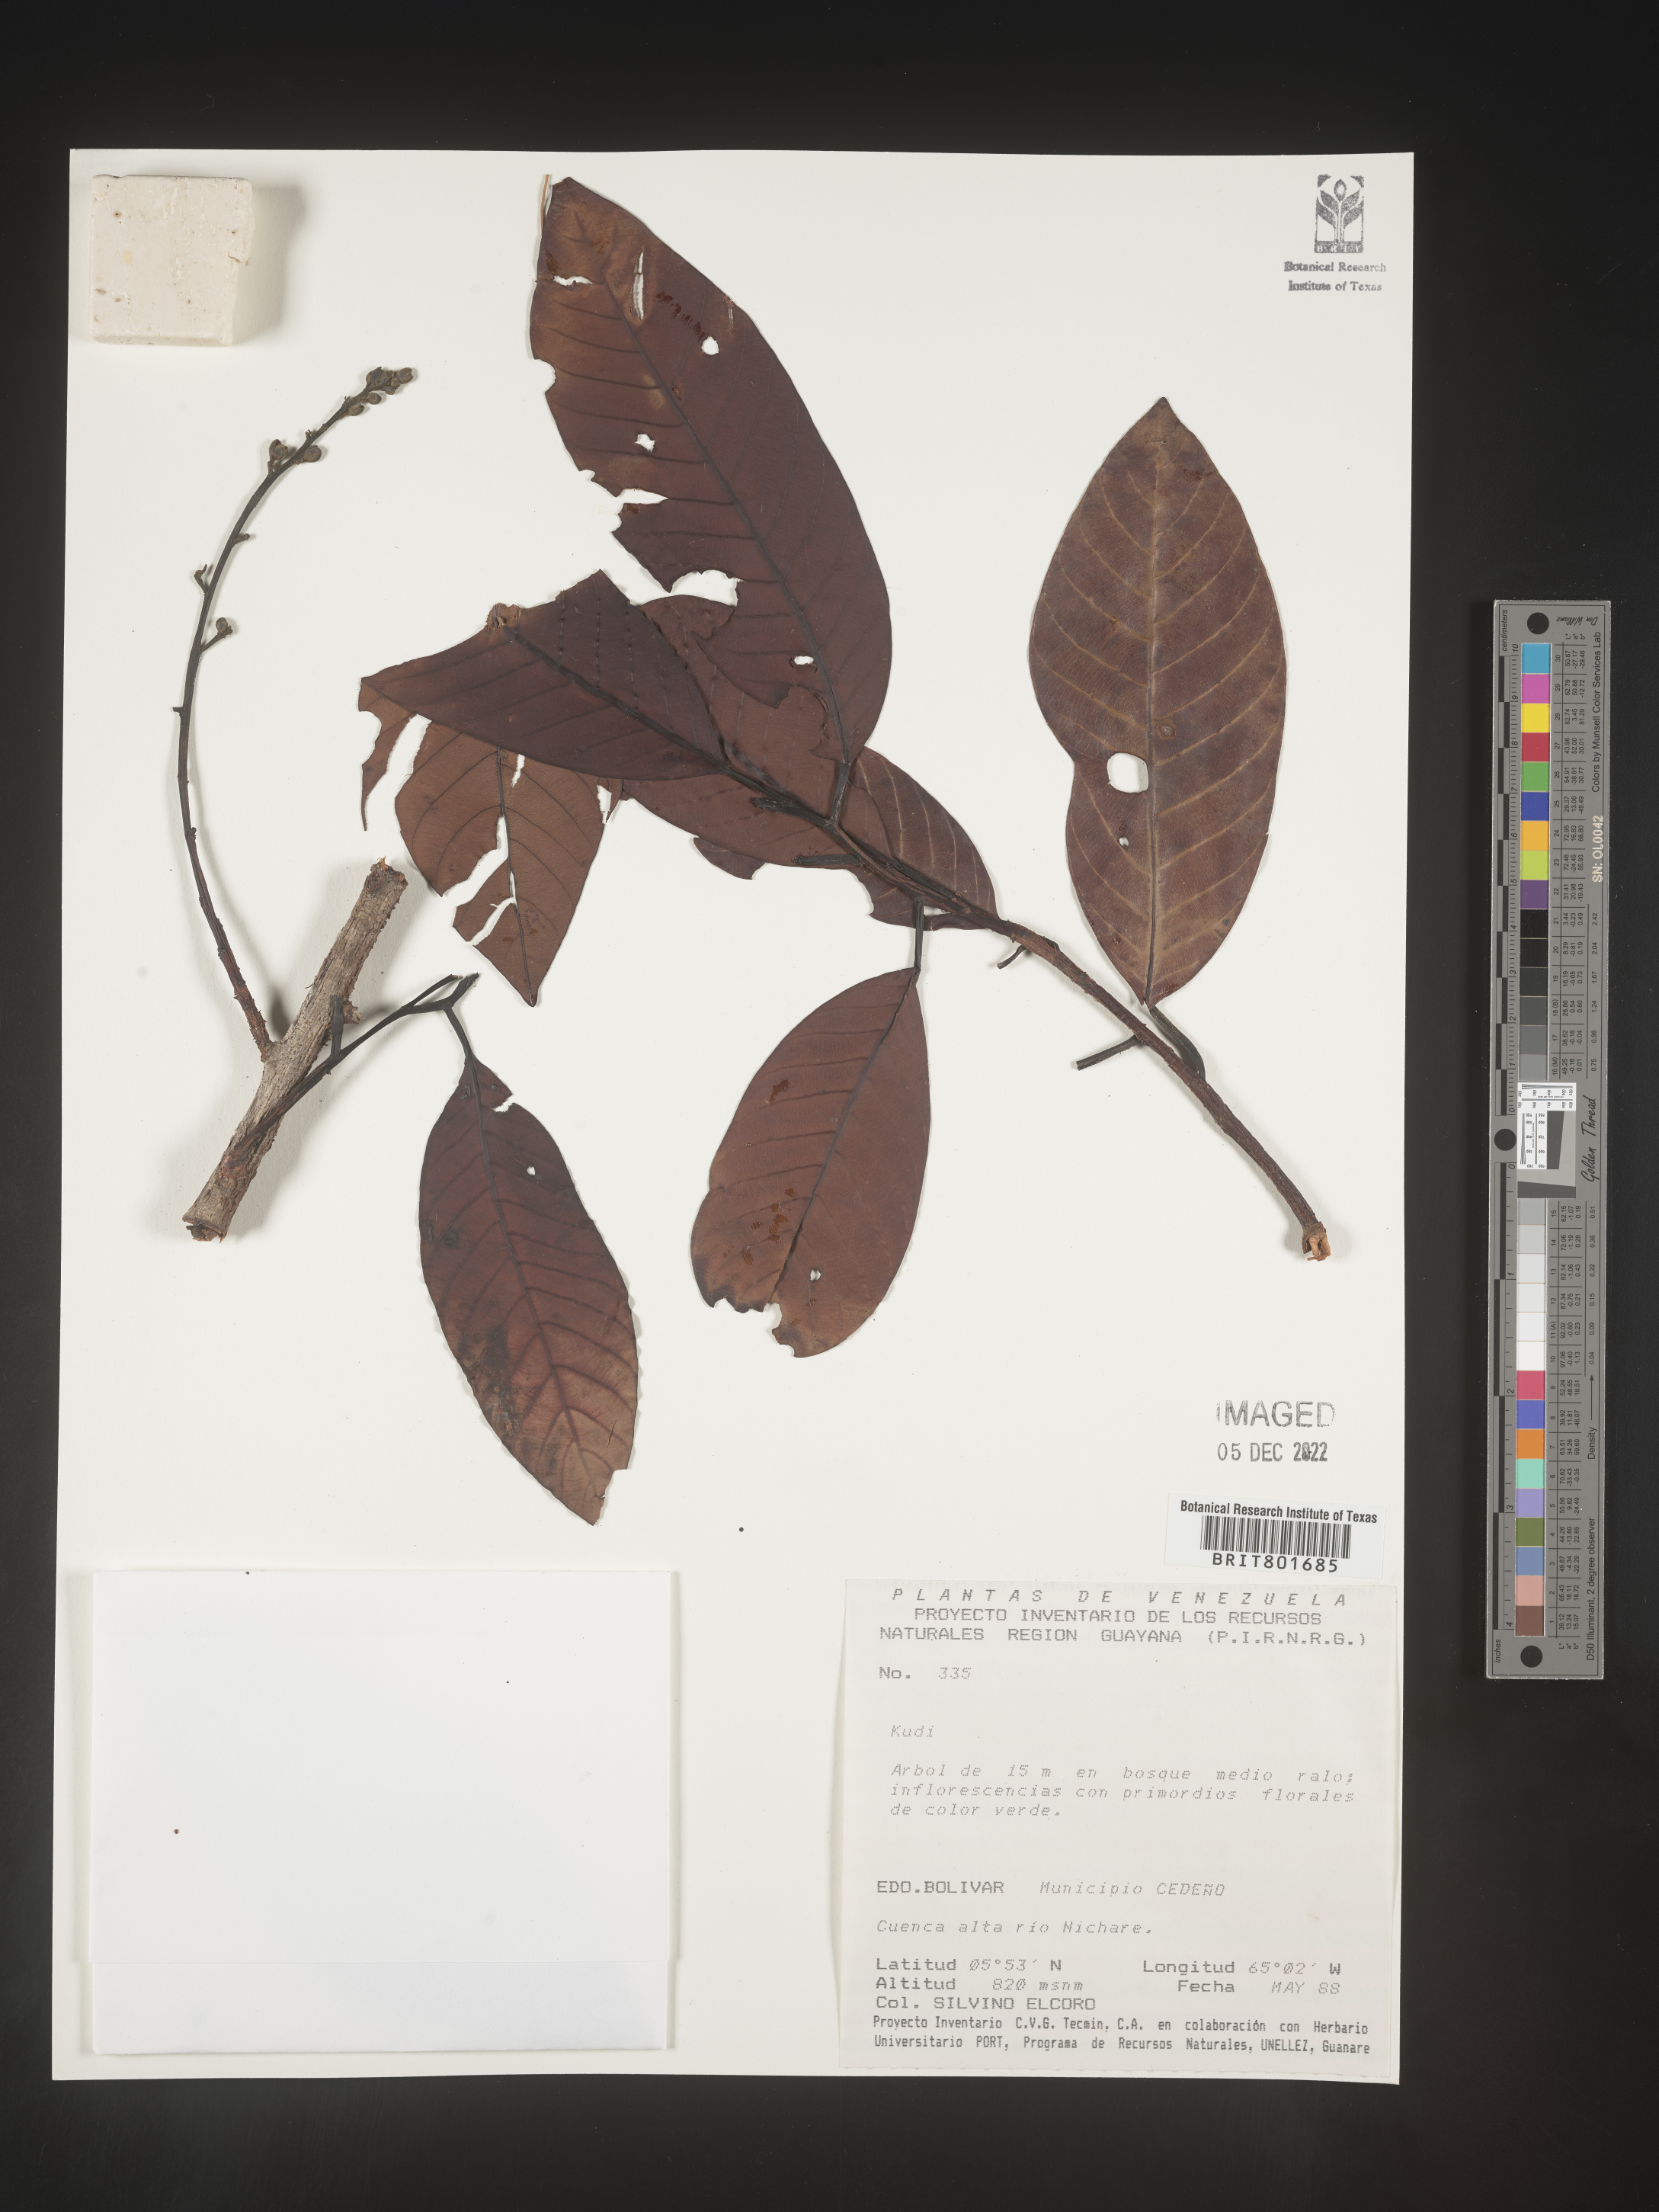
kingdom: Plantae
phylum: Tracheophyta
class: Magnoliopsida
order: Malpighiales
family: Clusiaceae
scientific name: Clusiaceae
